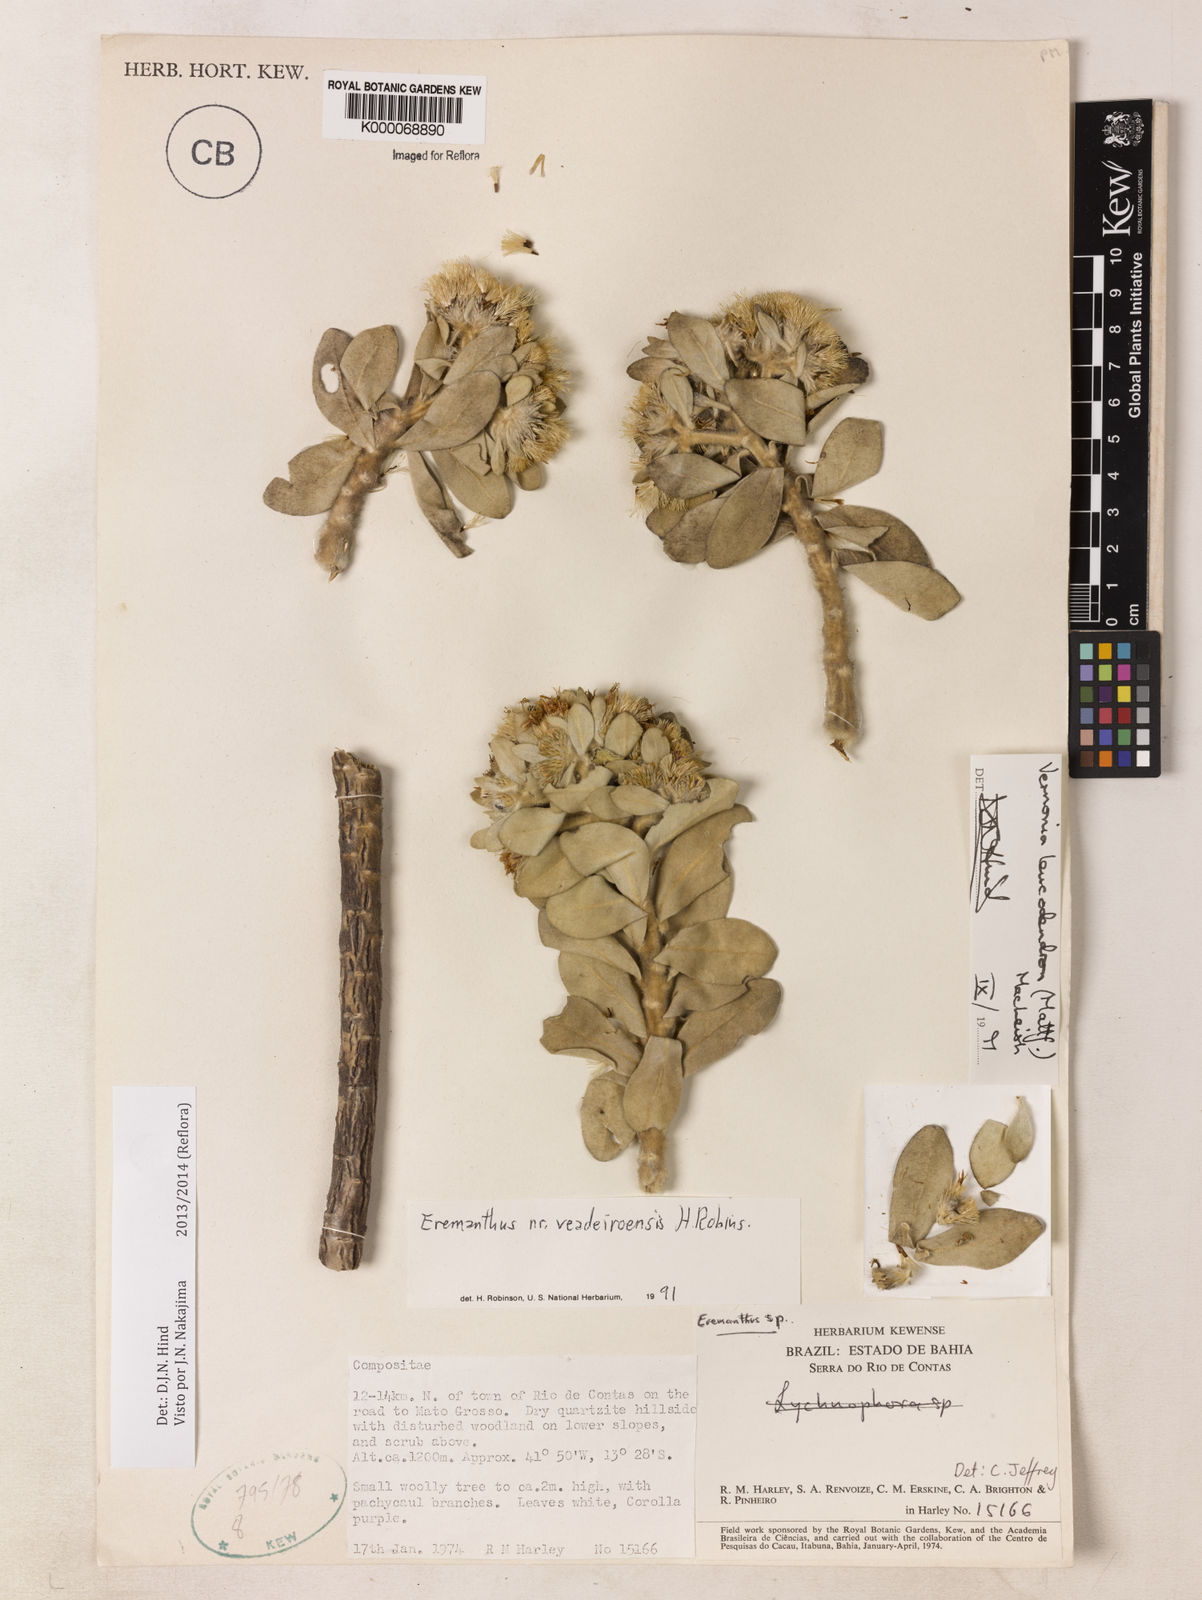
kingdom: Plantae
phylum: Tracheophyta
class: Magnoliopsida
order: Asterales
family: Asteraceae
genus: Lychnophorella
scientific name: Lychnophorella leucodendron
